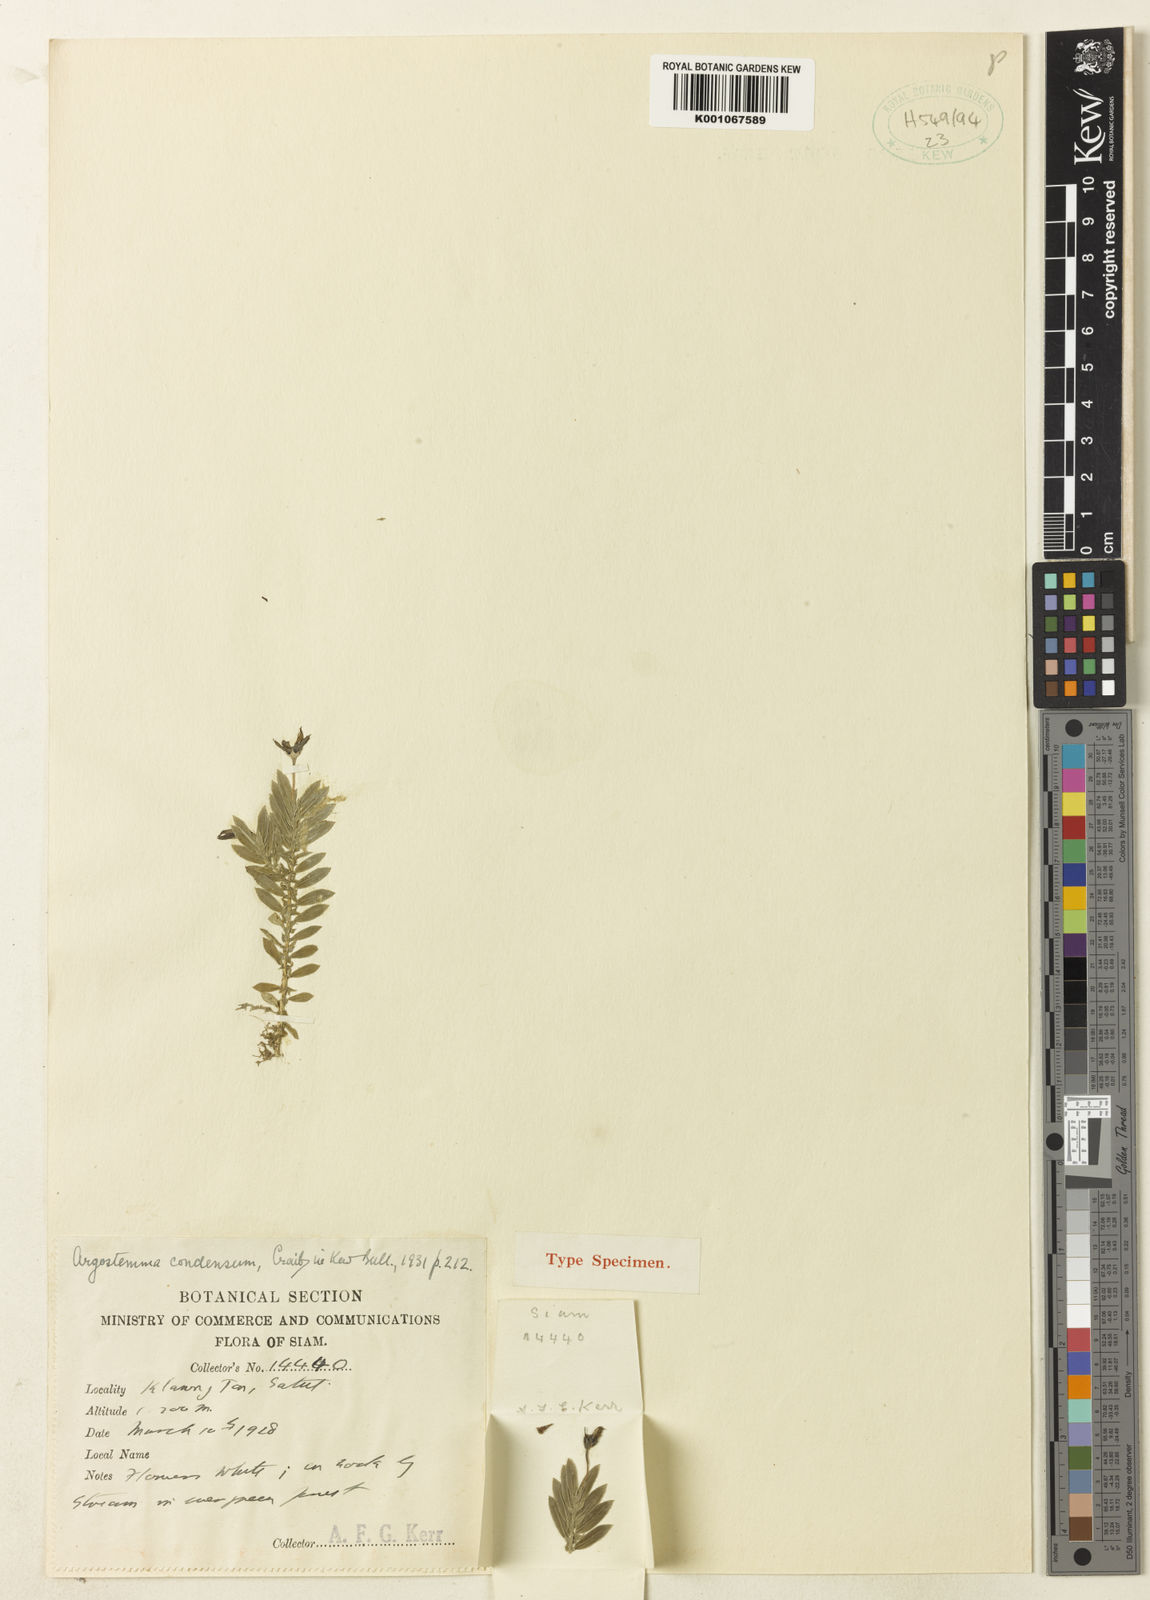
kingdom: Plantae
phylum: Tracheophyta
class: Magnoliopsida
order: Gentianales
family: Rubiaceae
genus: Argostemma
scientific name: Argostemma condensum
